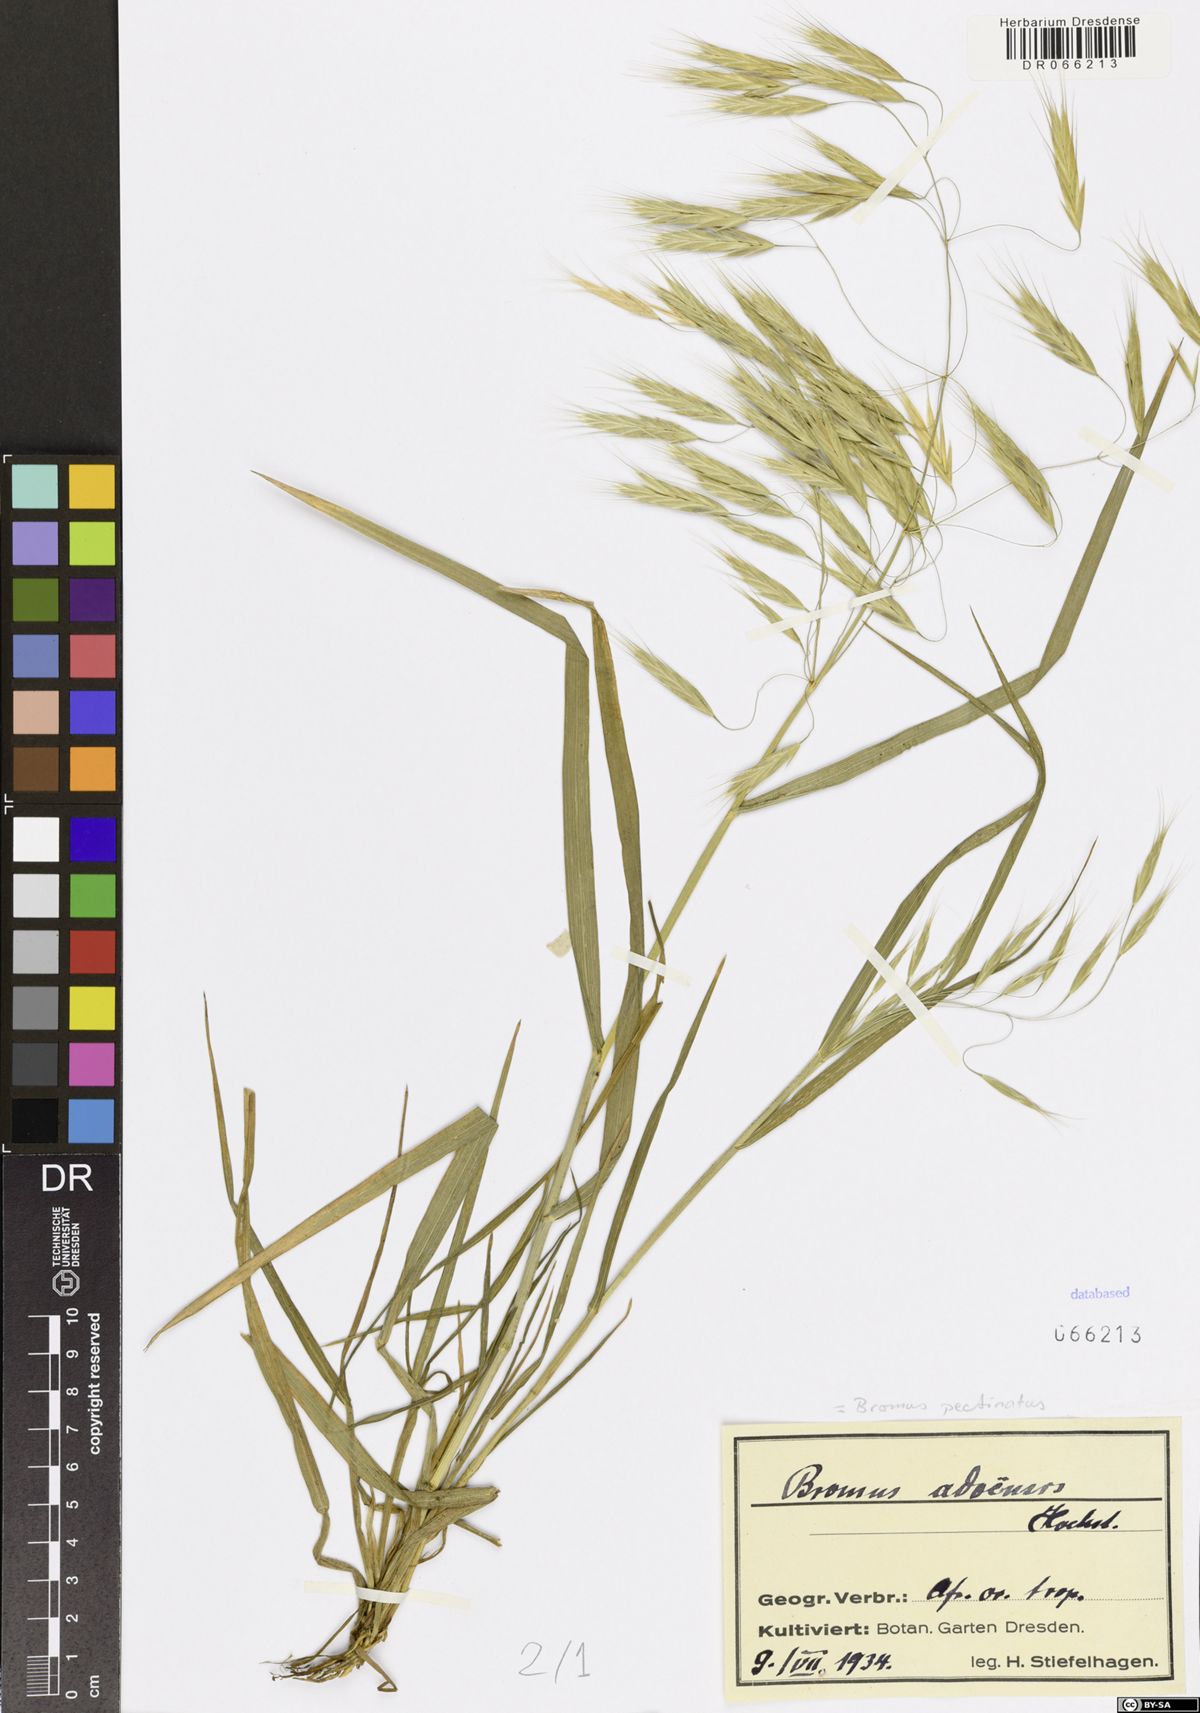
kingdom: Plantae
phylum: Tracheophyta
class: Liliopsida
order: Poales
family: Poaceae
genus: Bromus
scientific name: Bromus pectinatus
